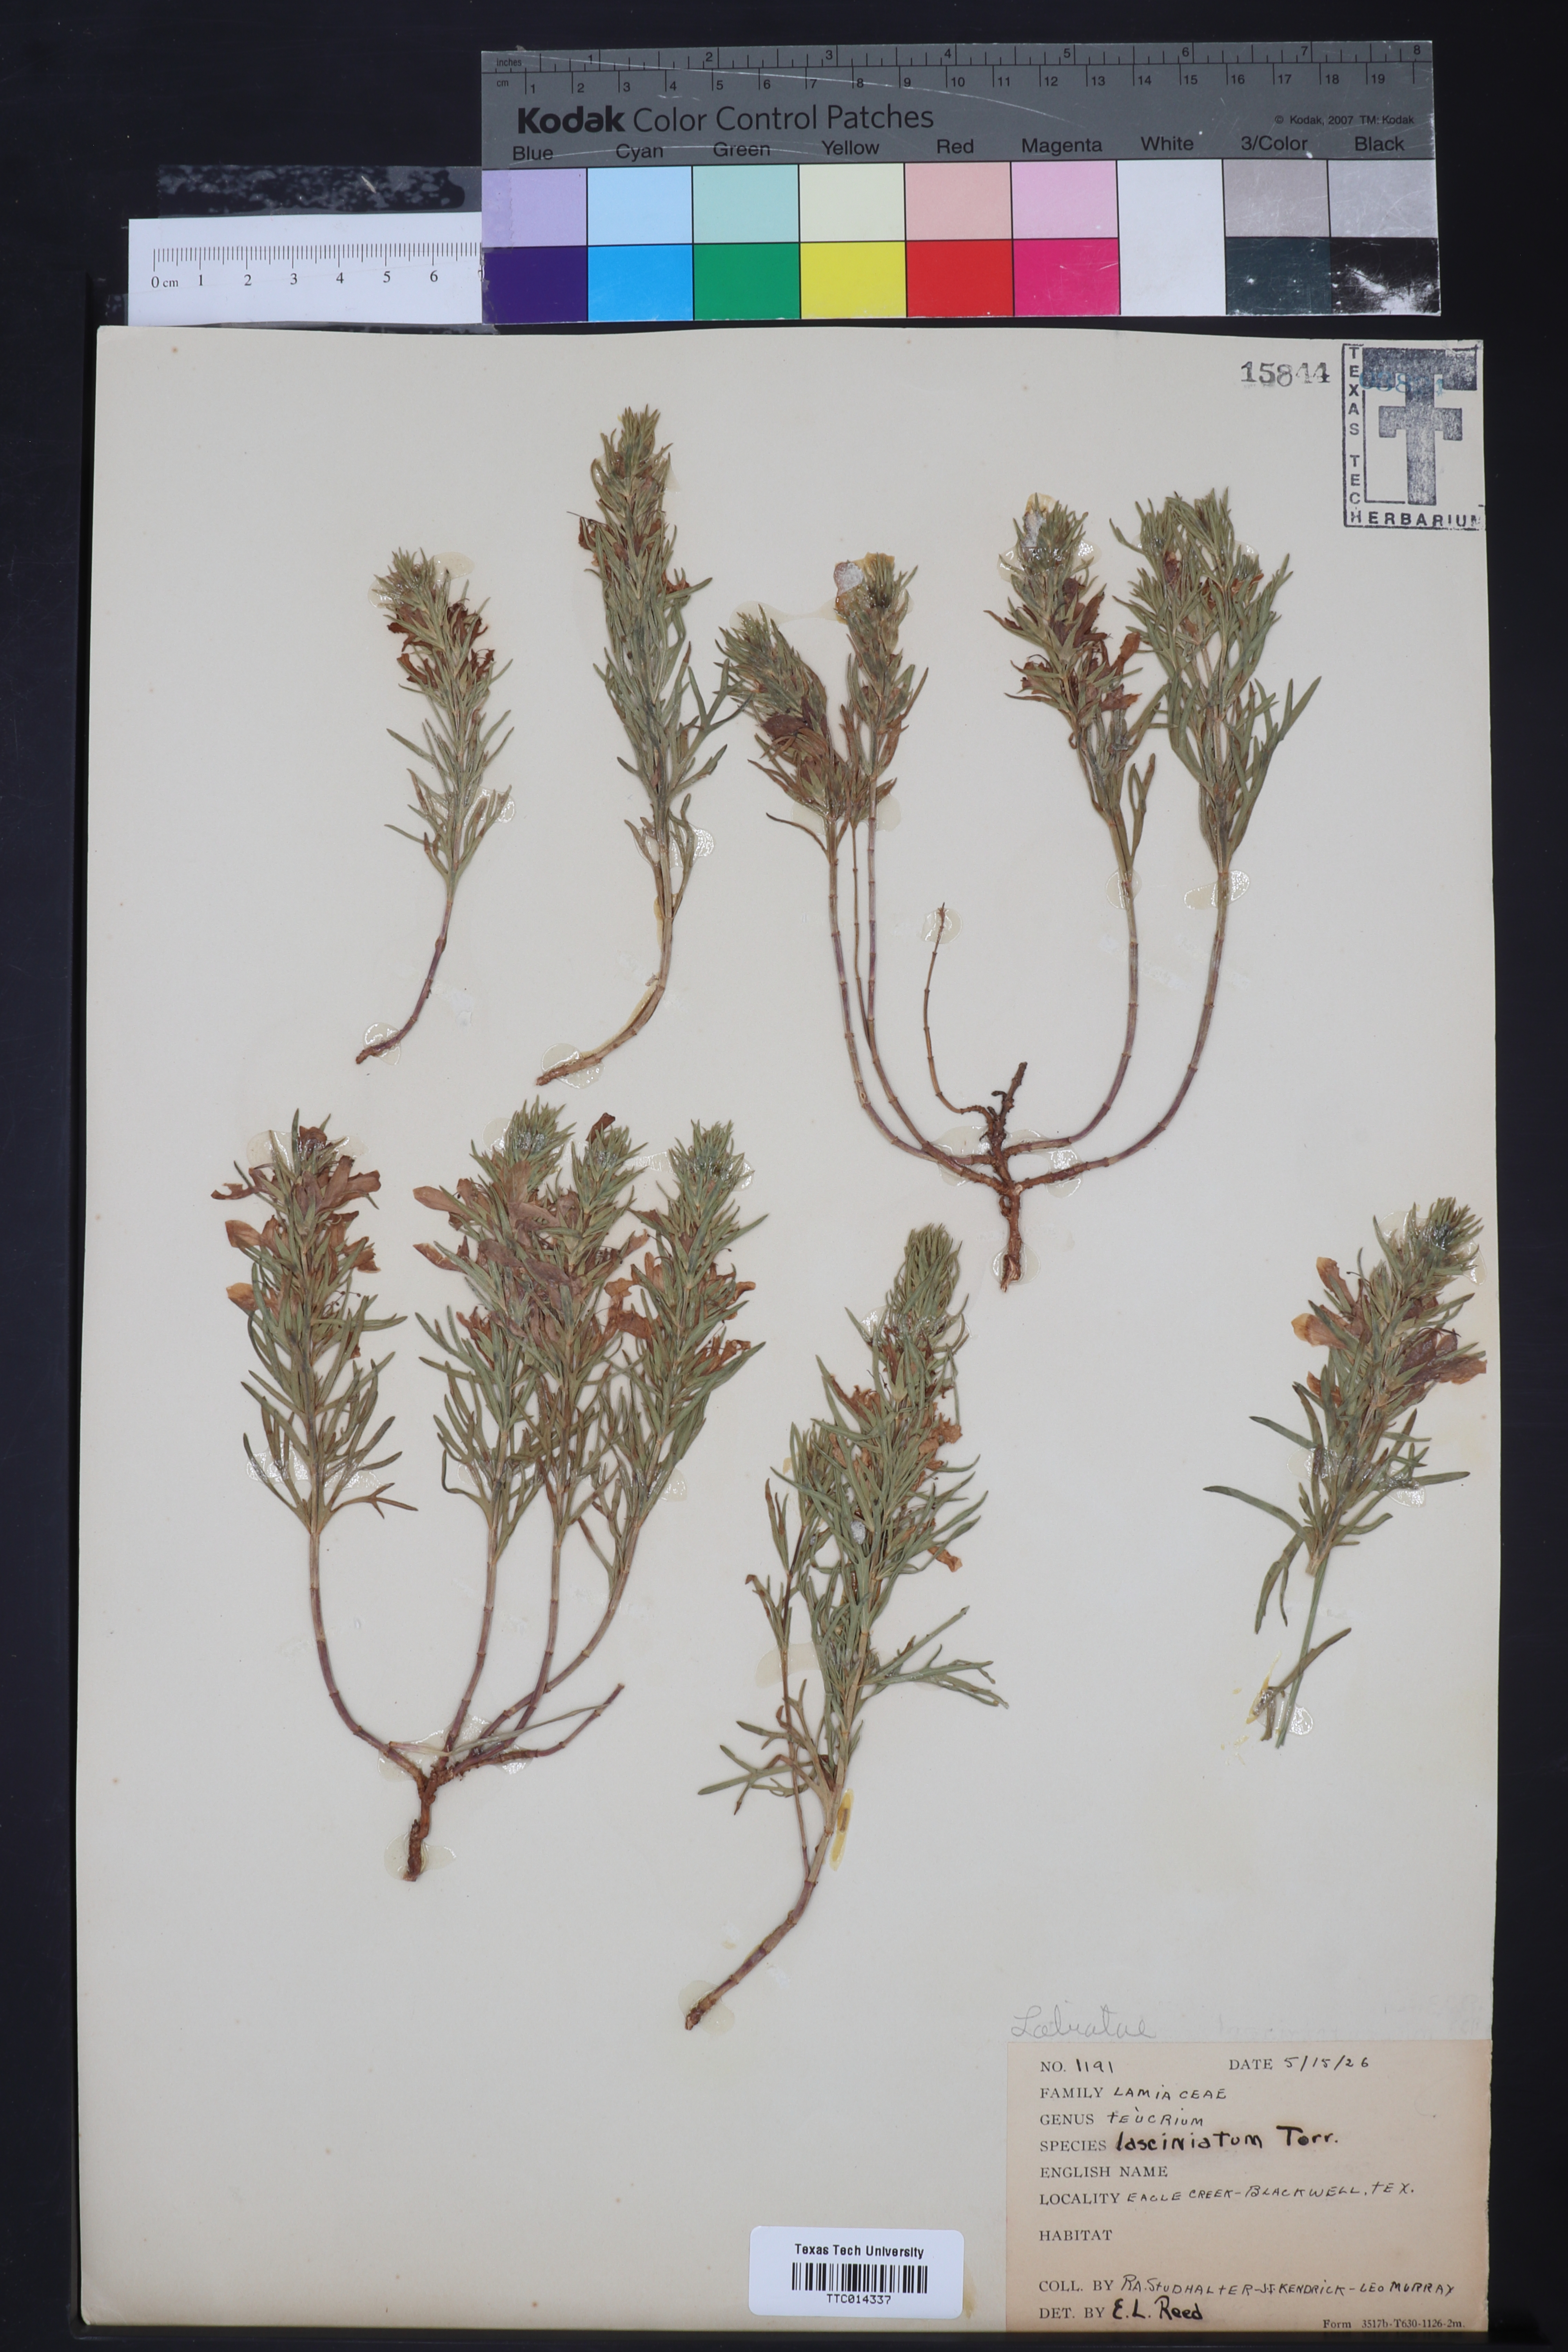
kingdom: Plantae
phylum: Tracheophyta
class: Magnoliopsida
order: Lamiales
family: Lamiaceae
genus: Teucrium
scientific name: Teucrium laciniatum
